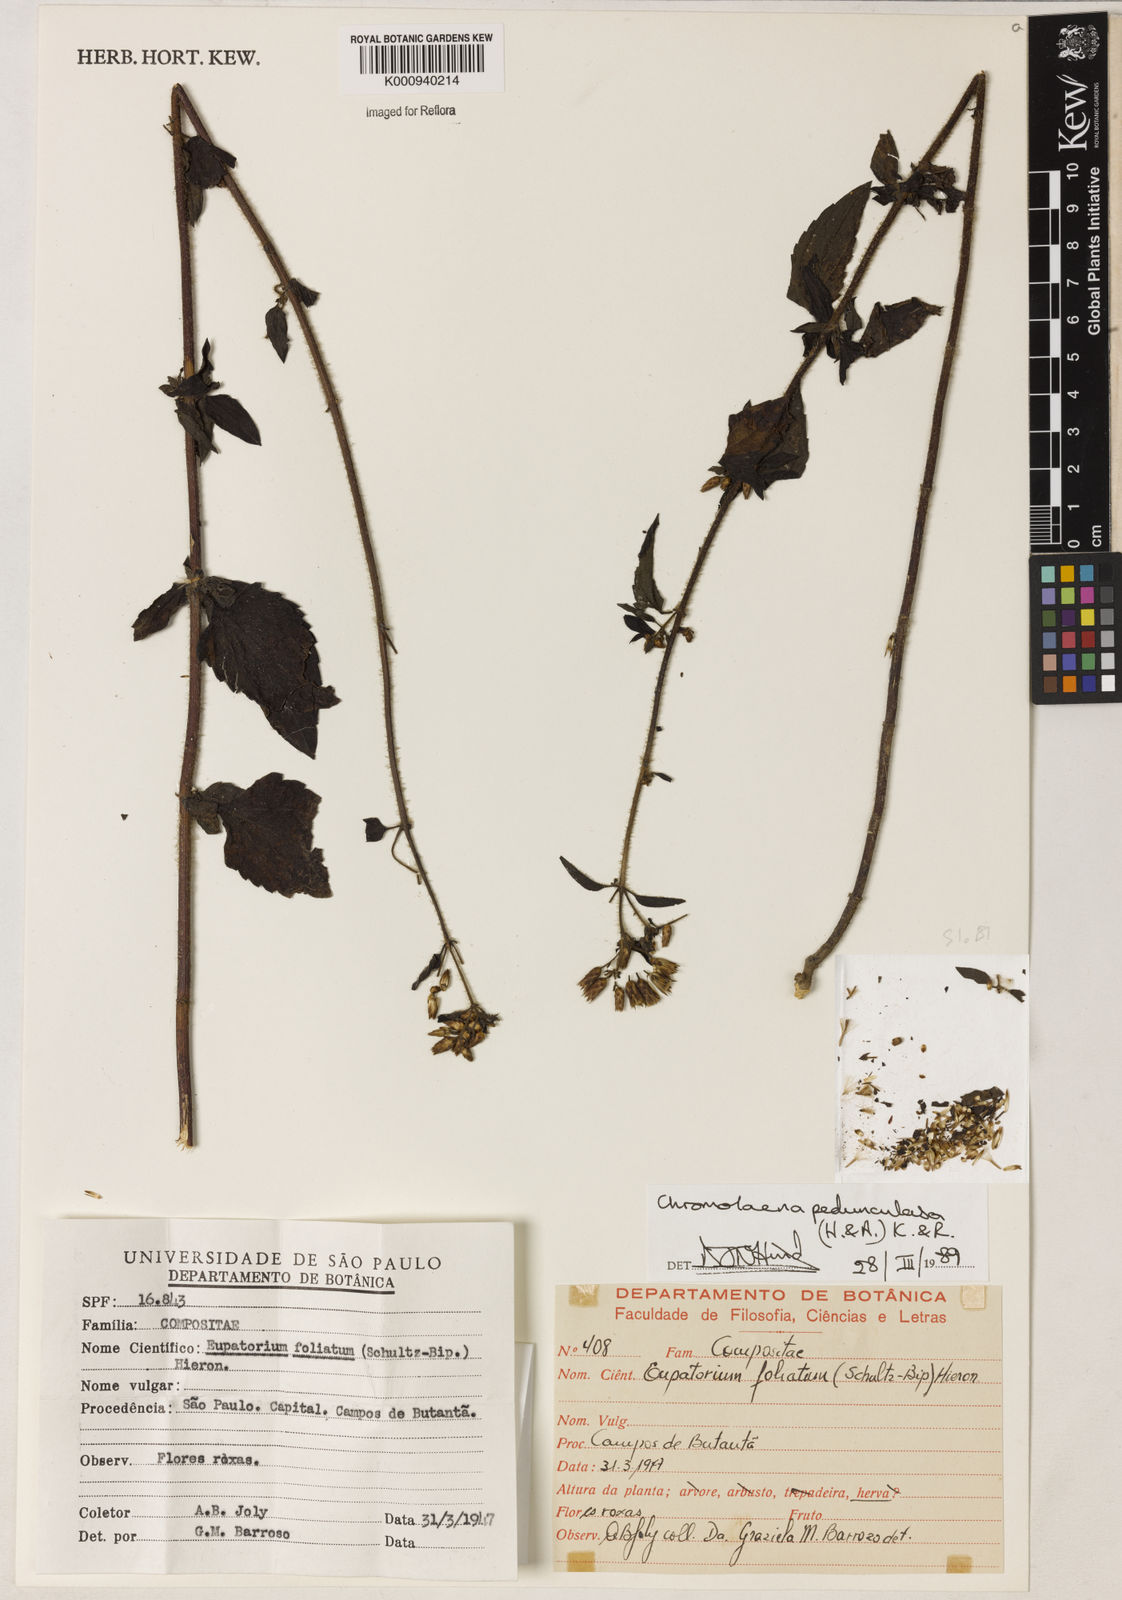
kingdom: Plantae
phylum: Tracheophyta
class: Magnoliopsida
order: Asterales
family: Asteraceae
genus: Chromolaena
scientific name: Chromolaena pedunculosa
